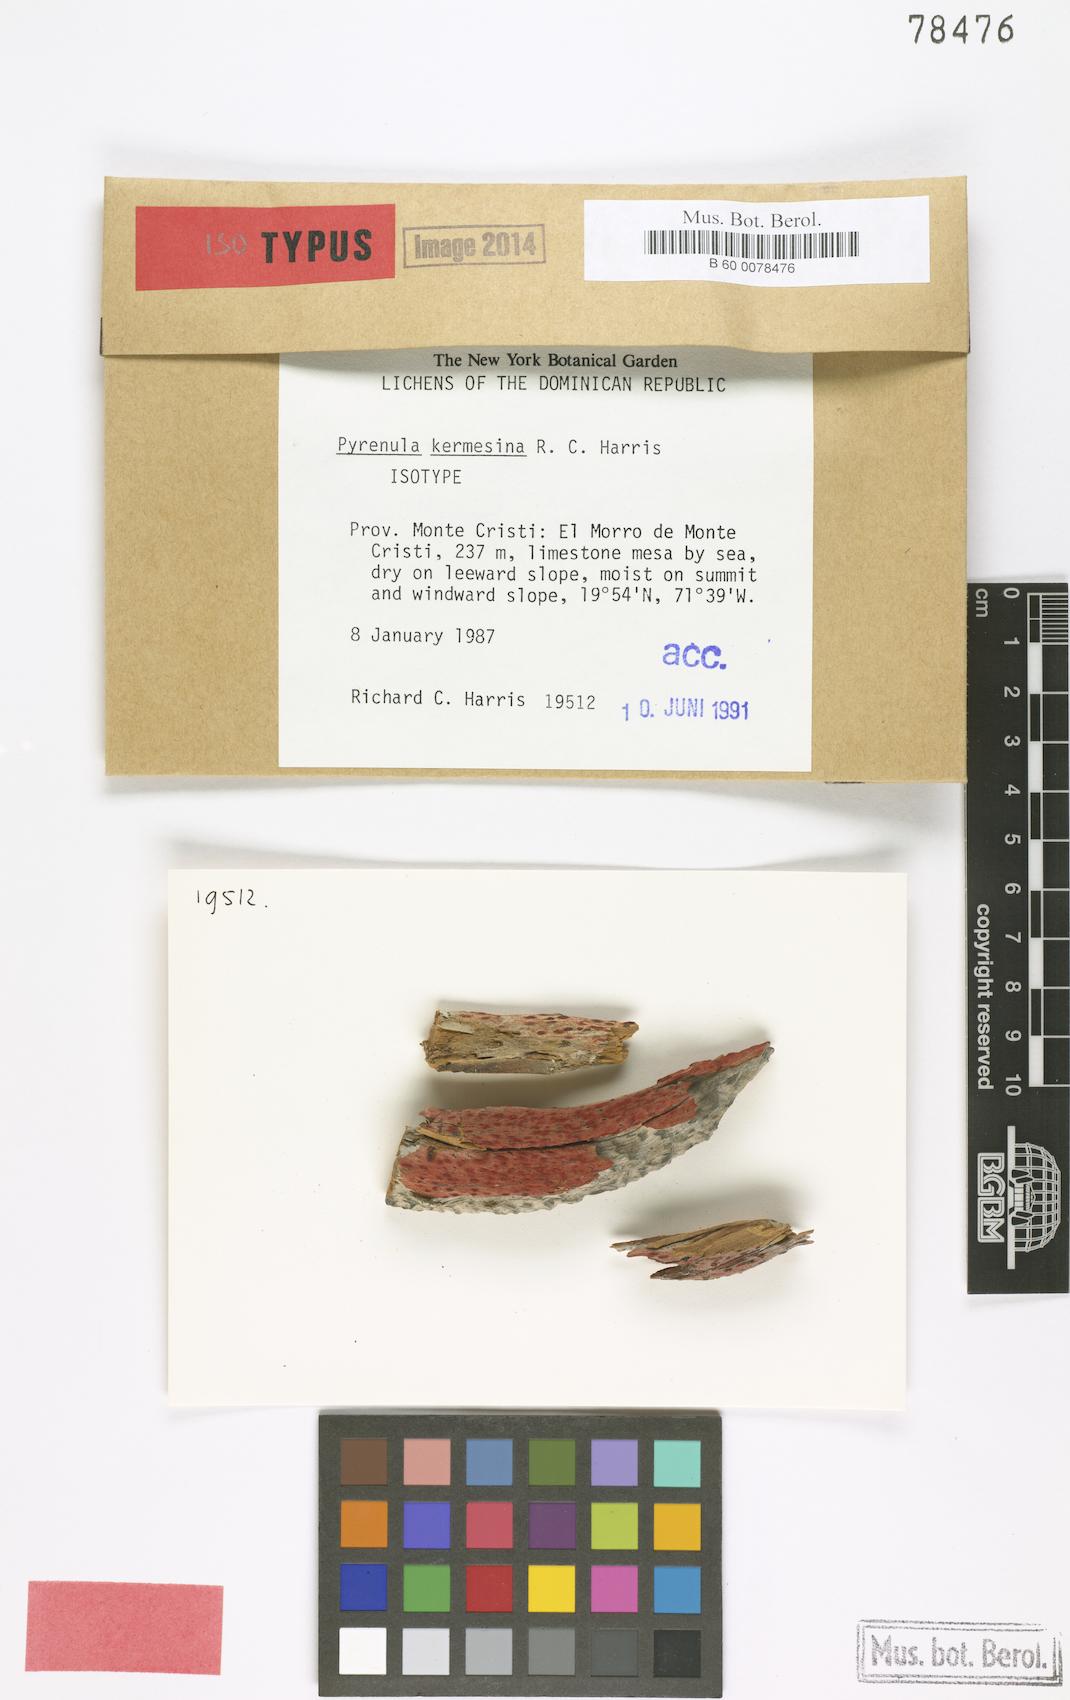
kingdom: Fungi
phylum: Ascomycota
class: Eurotiomycetes
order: Pyrenulales
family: Pyrenulaceae
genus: Pyrenula
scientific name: Pyrenula kermesiana
